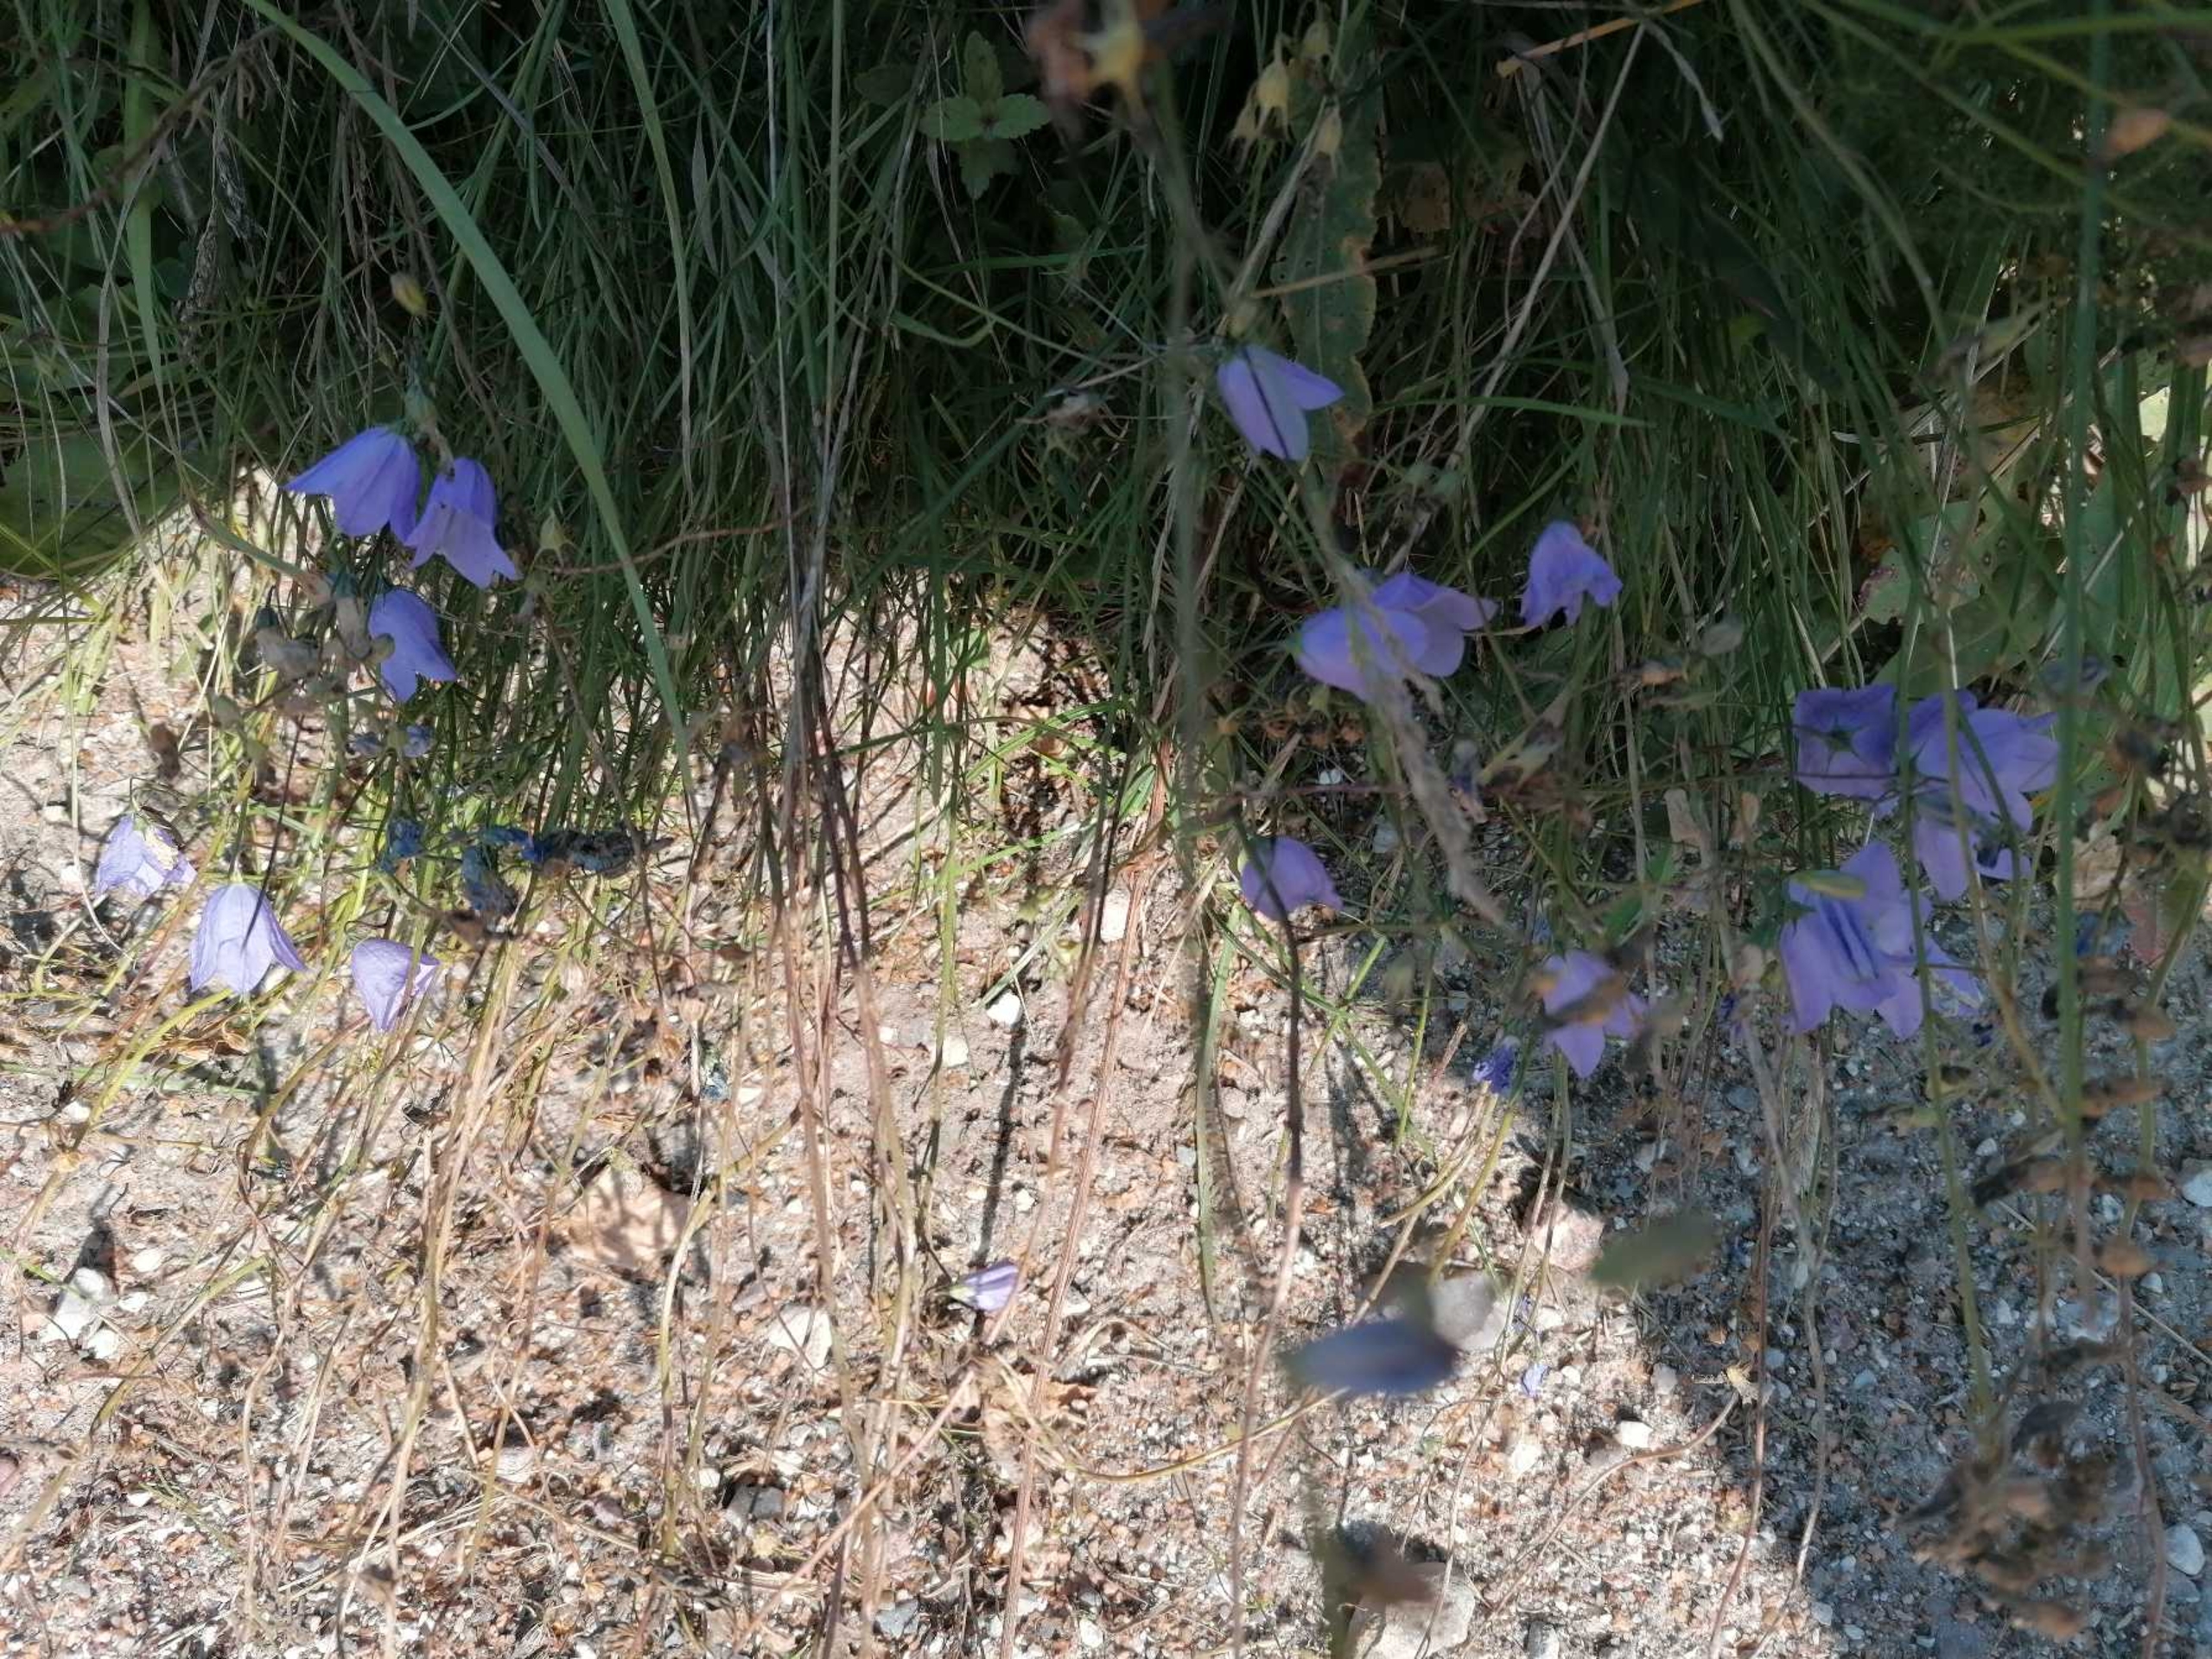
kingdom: Plantae
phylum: Tracheophyta
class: Magnoliopsida
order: Asterales
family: Campanulaceae
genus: Campanula
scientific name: Campanula rotundifolia
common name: Liden klokke
